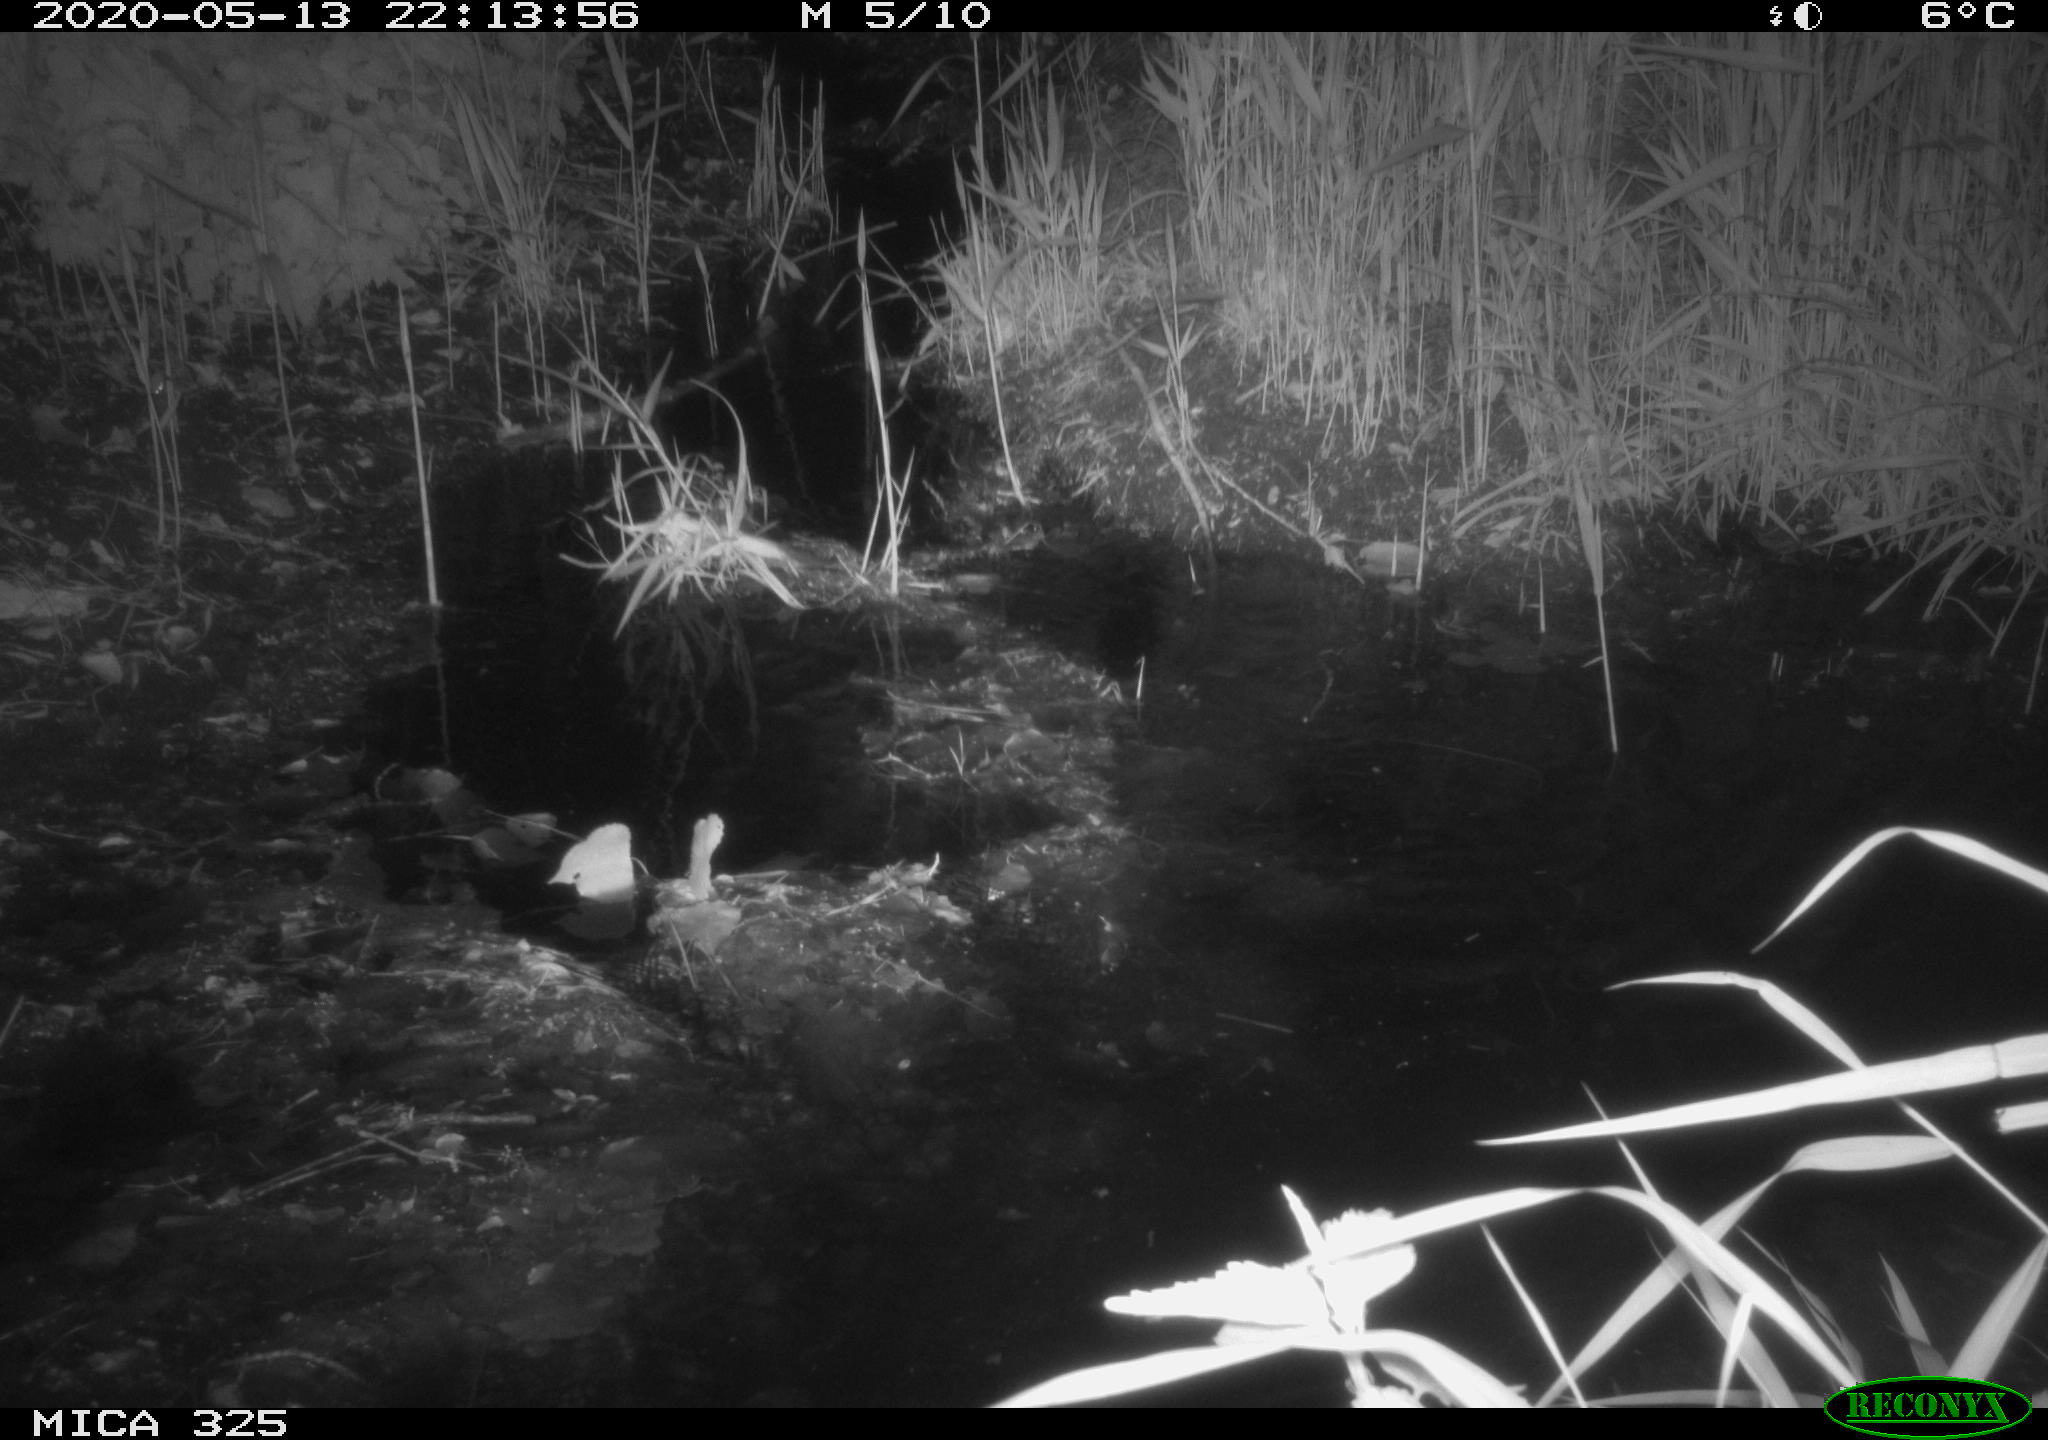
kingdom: Animalia
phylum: Chordata
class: Aves
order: Anseriformes
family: Anatidae
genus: Anas
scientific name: Anas platyrhynchos
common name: Mallard
